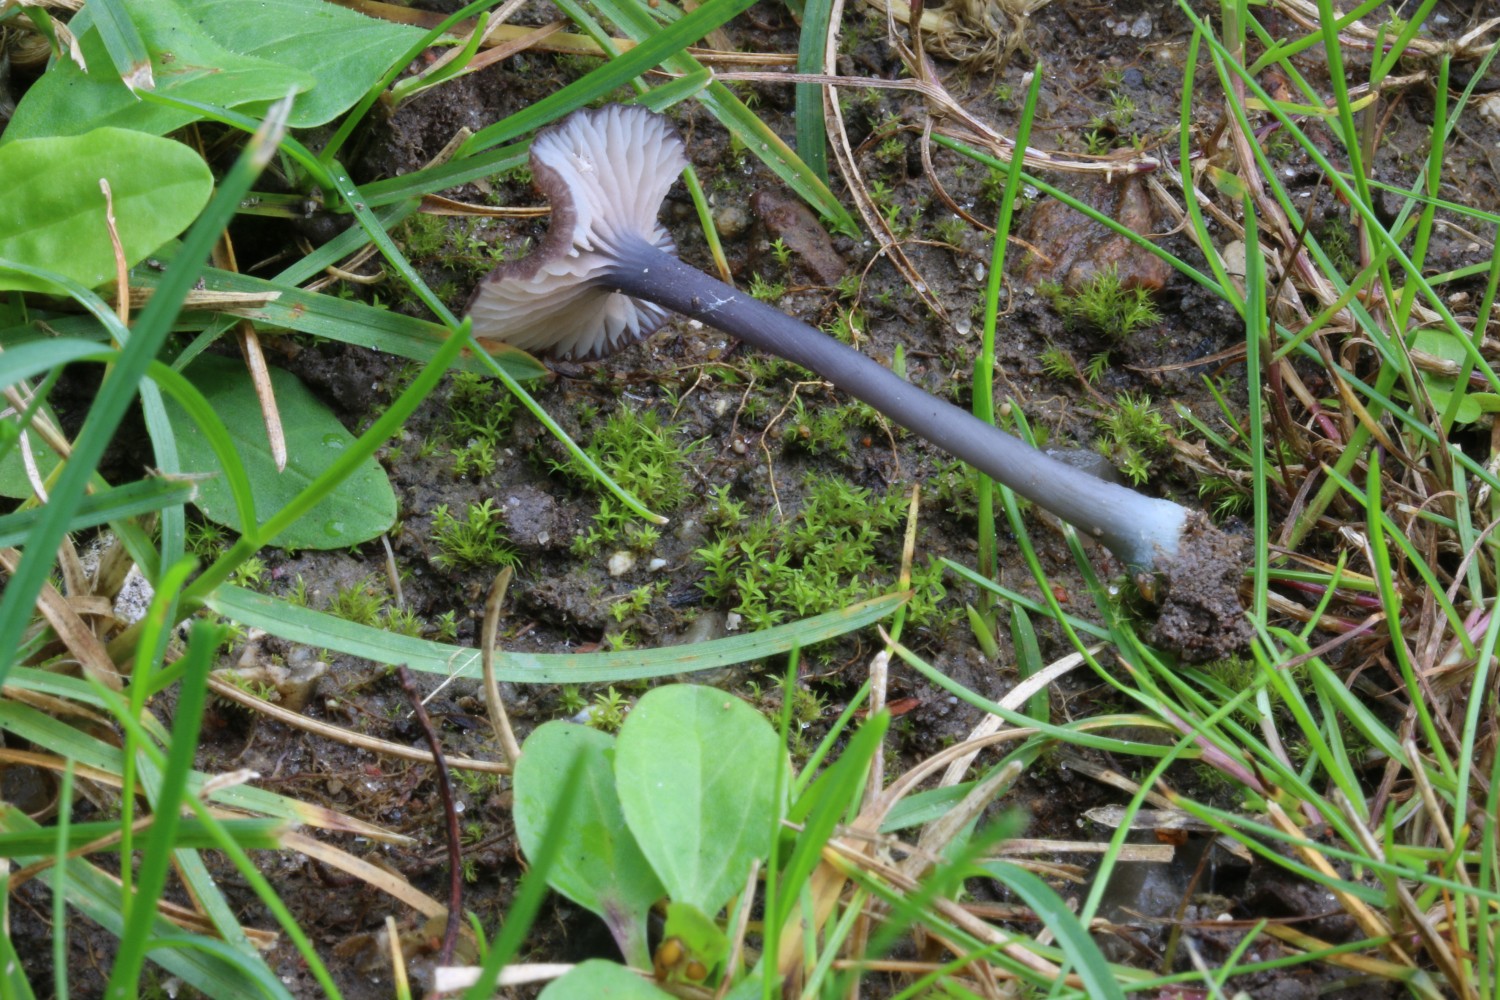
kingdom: Fungi
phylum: Basidiomycota
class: Agaricomycetes
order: Agaricales
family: Entolomataceae
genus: Entoloma
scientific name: Entoloma incarnatofuscescens
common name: tragt-rødblad
